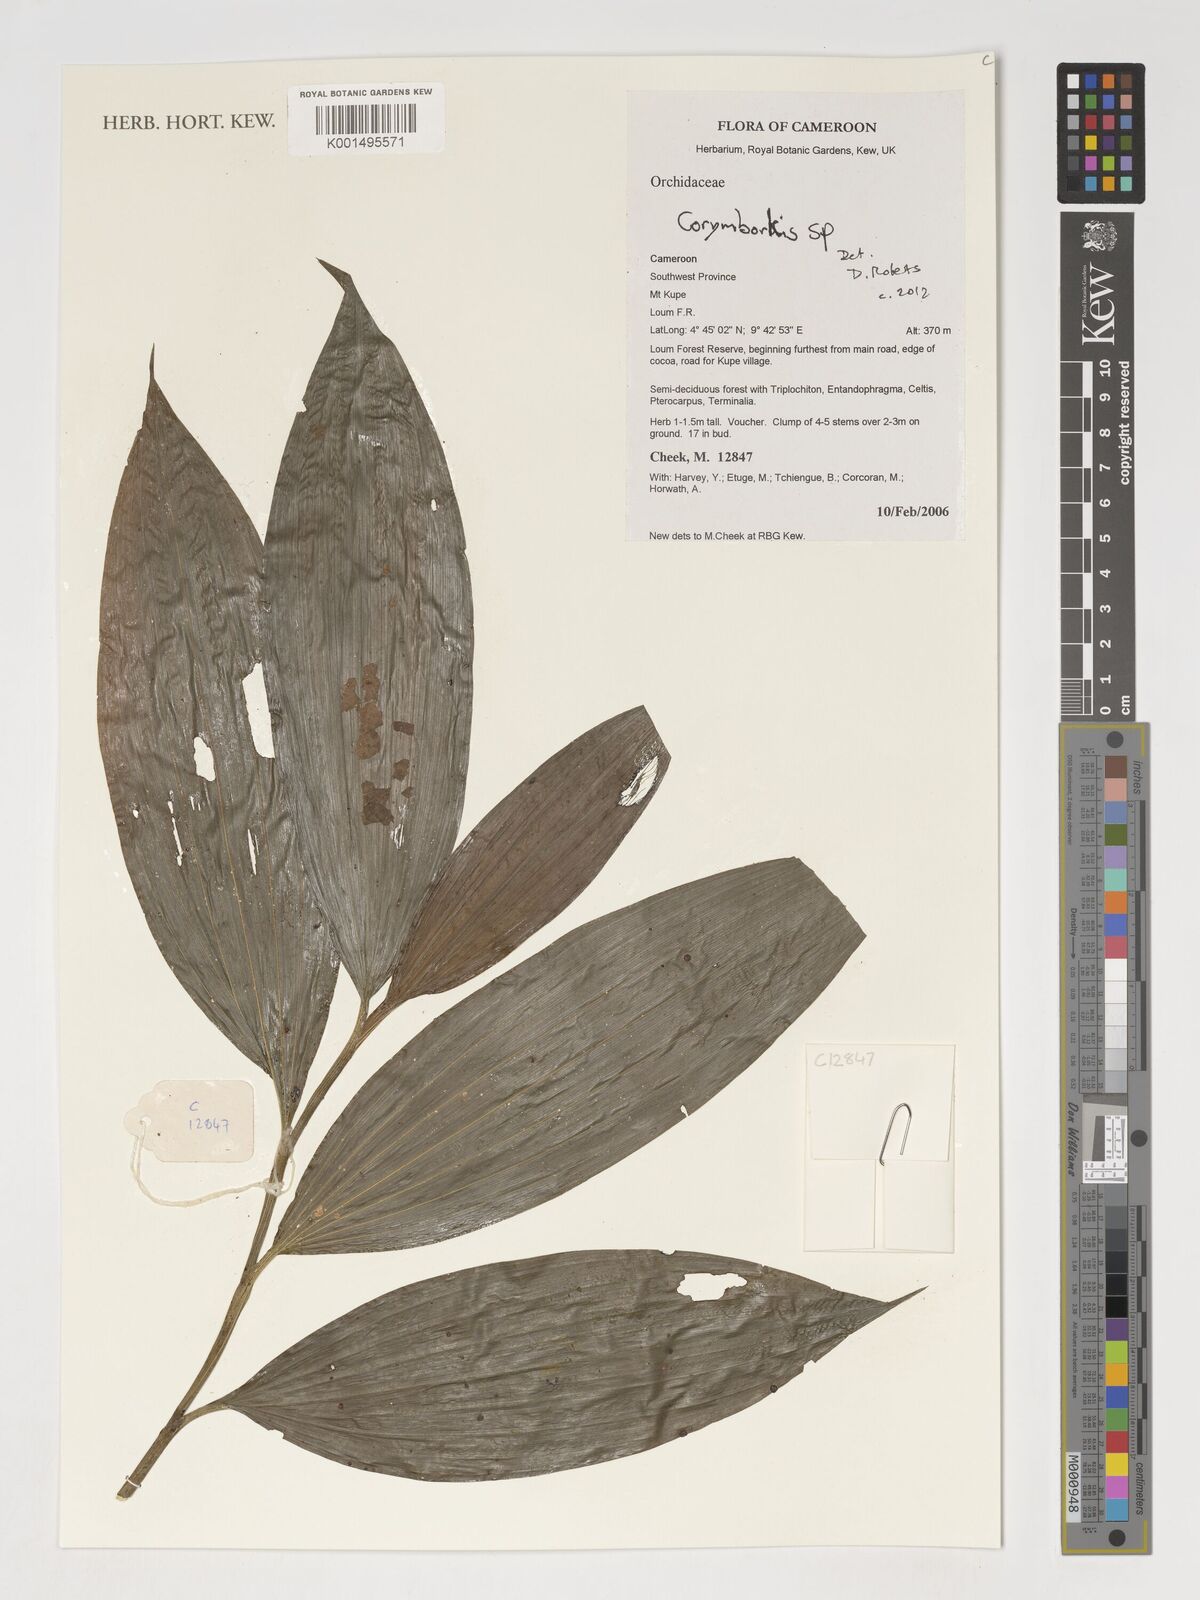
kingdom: Plantae
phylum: Tracheophyta
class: Liliopsida
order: Asparagales
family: Orchidaceae
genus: Corymborkis
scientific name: Corymborkis
